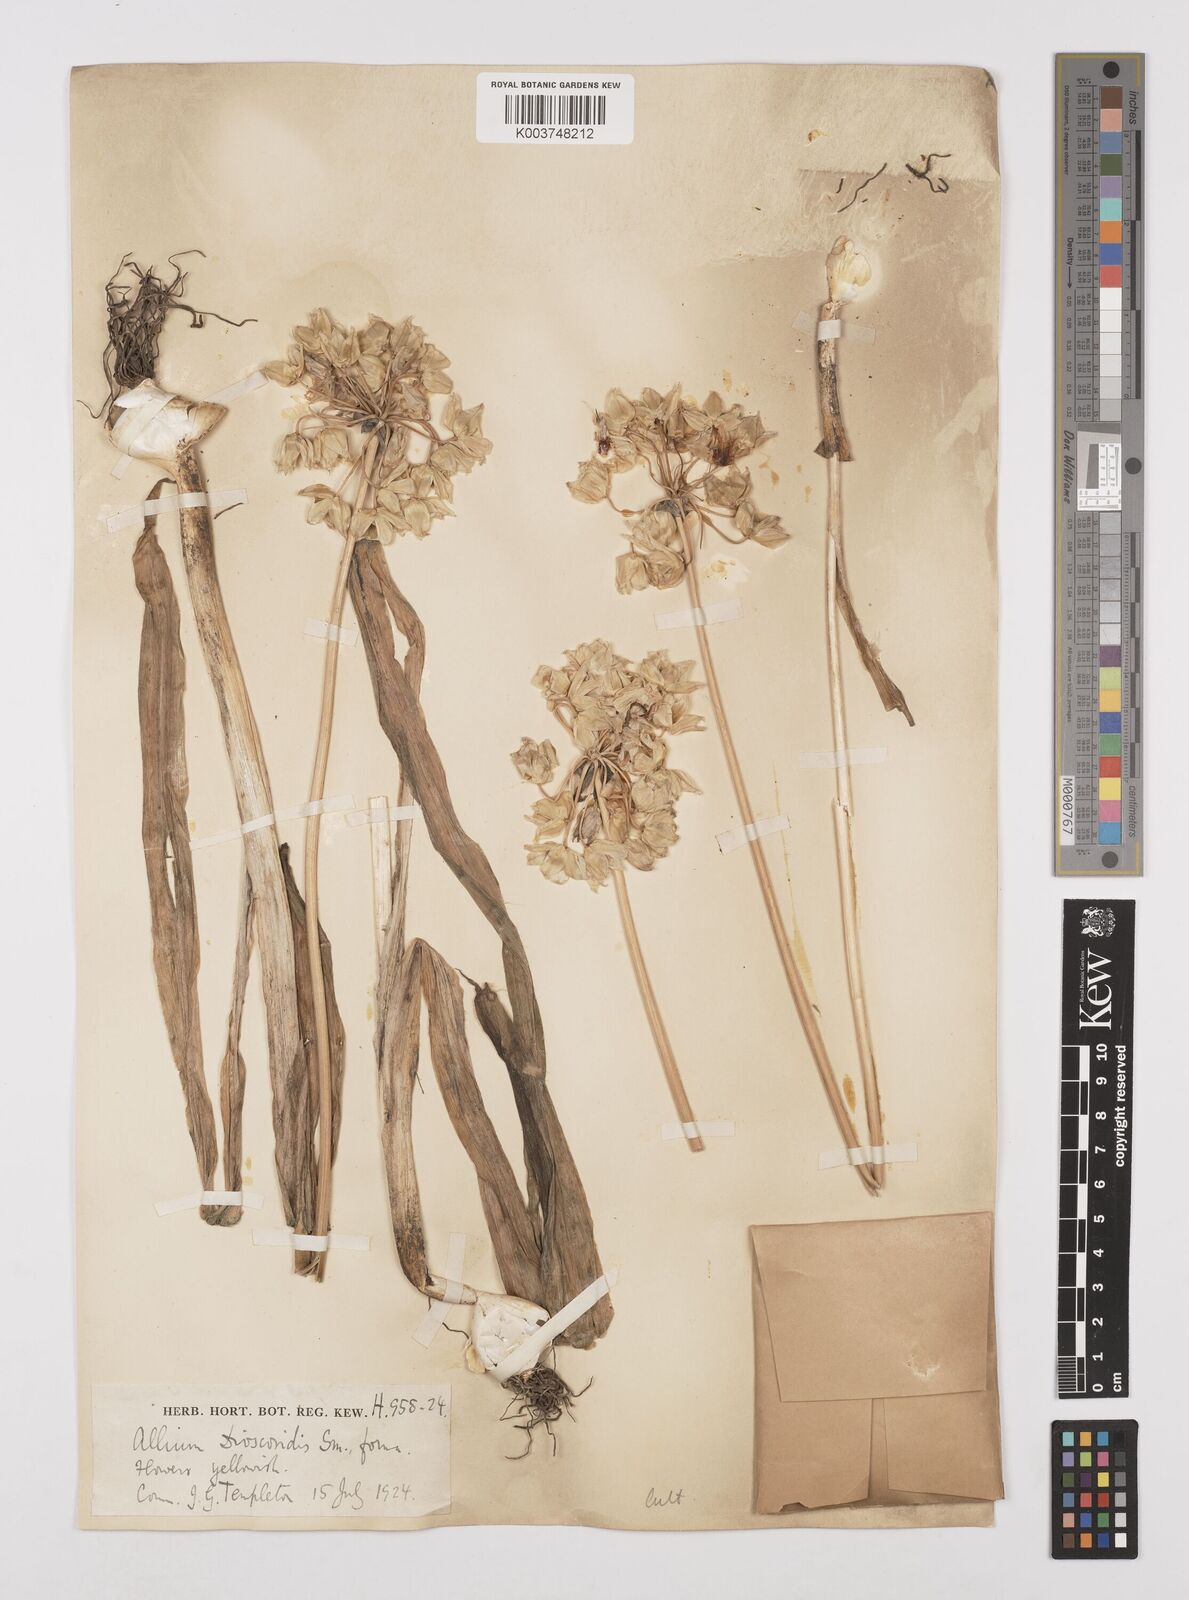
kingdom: Plantae
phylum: Tracheophyta
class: Liliopsida
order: Asparagales
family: Amaryllidaceae
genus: Allium
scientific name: Allium siculum
